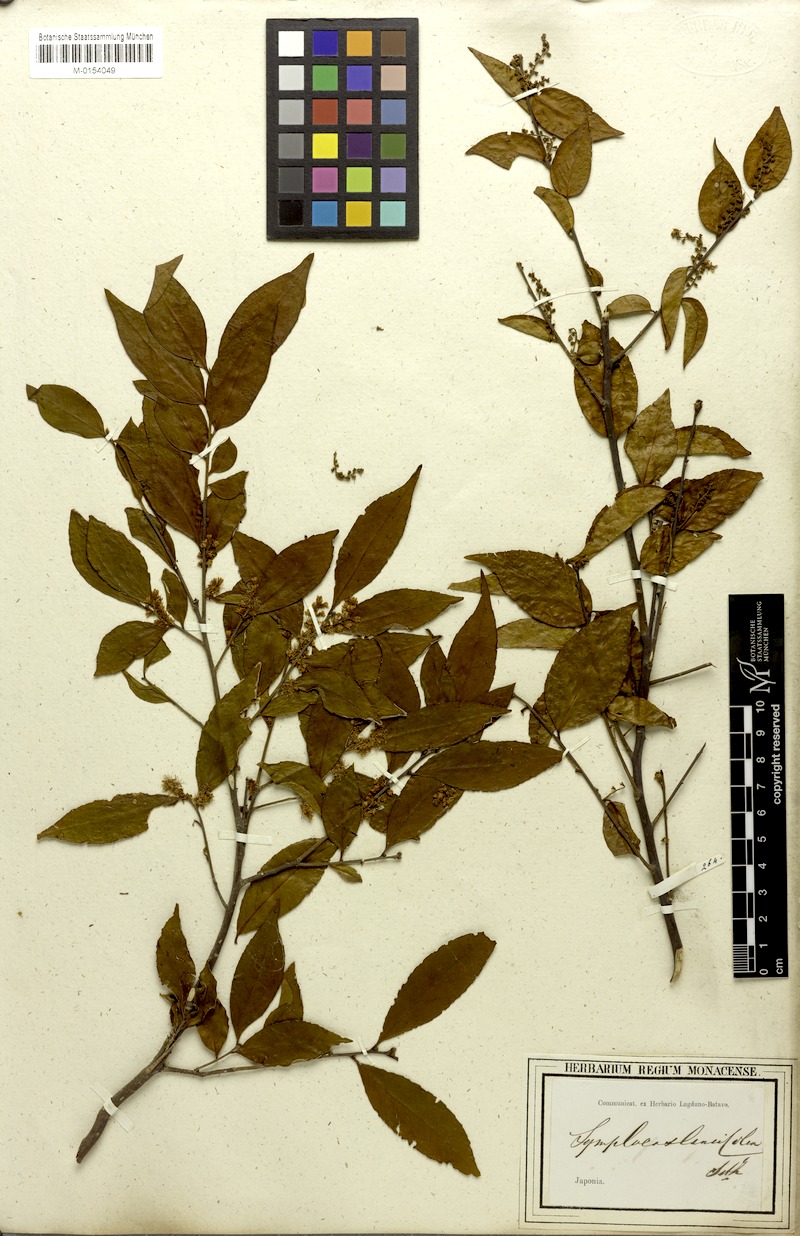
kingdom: Plantae
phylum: Tracheophyta
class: Magnoliopsida
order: Ericales
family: Symplocaceae
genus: Symplocos
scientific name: Symplocos lancifolia
